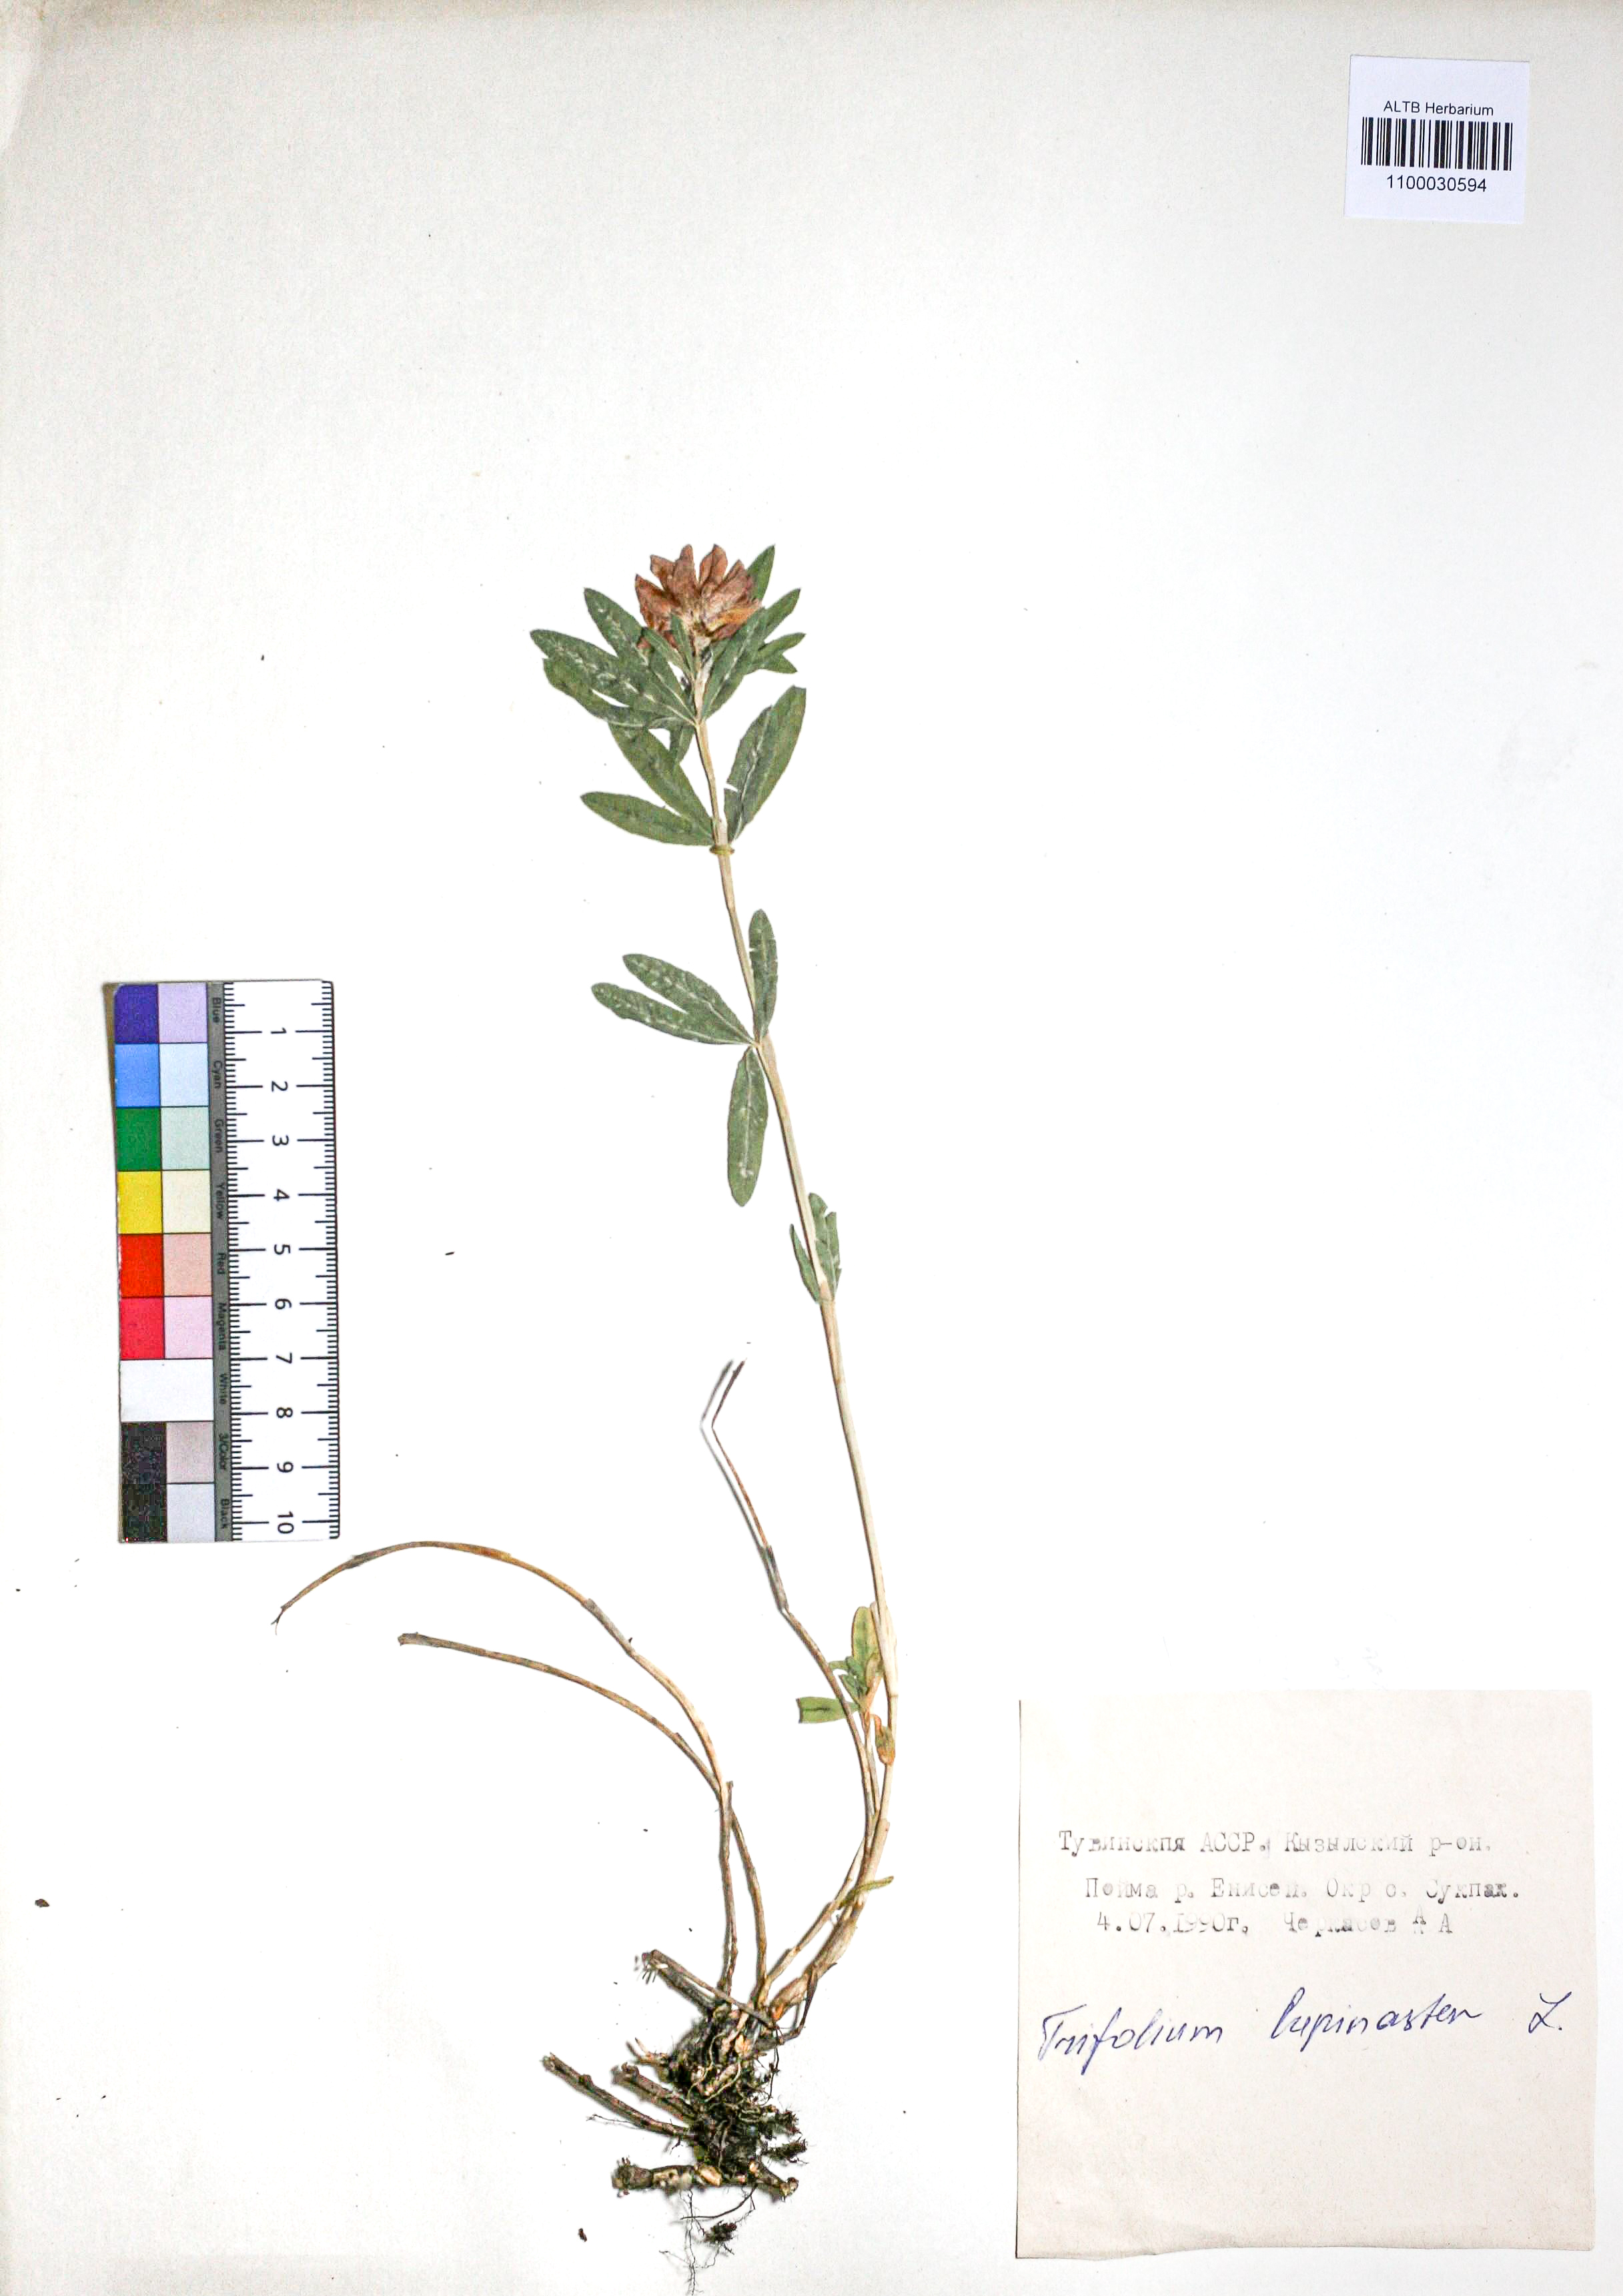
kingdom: Plantae
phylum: Tracheophyta
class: Magnoliopsida
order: Fabales
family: Fabaceae
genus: Trifolium
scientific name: Trifolium lupinaster
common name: Lupine clover
